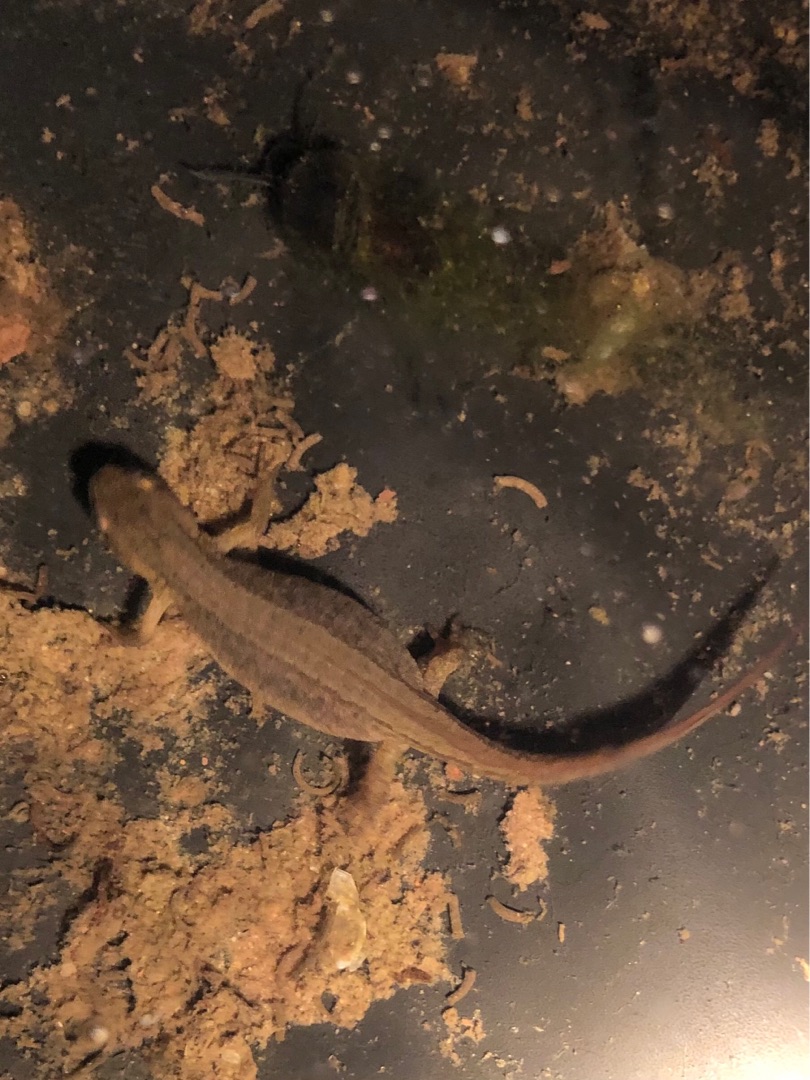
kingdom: Animalia
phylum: Chordata
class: Amphibia
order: Caudata
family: Salamandridae
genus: Lissotriton
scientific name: Lissotriton vulgaris
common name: Lille vandsalamander
